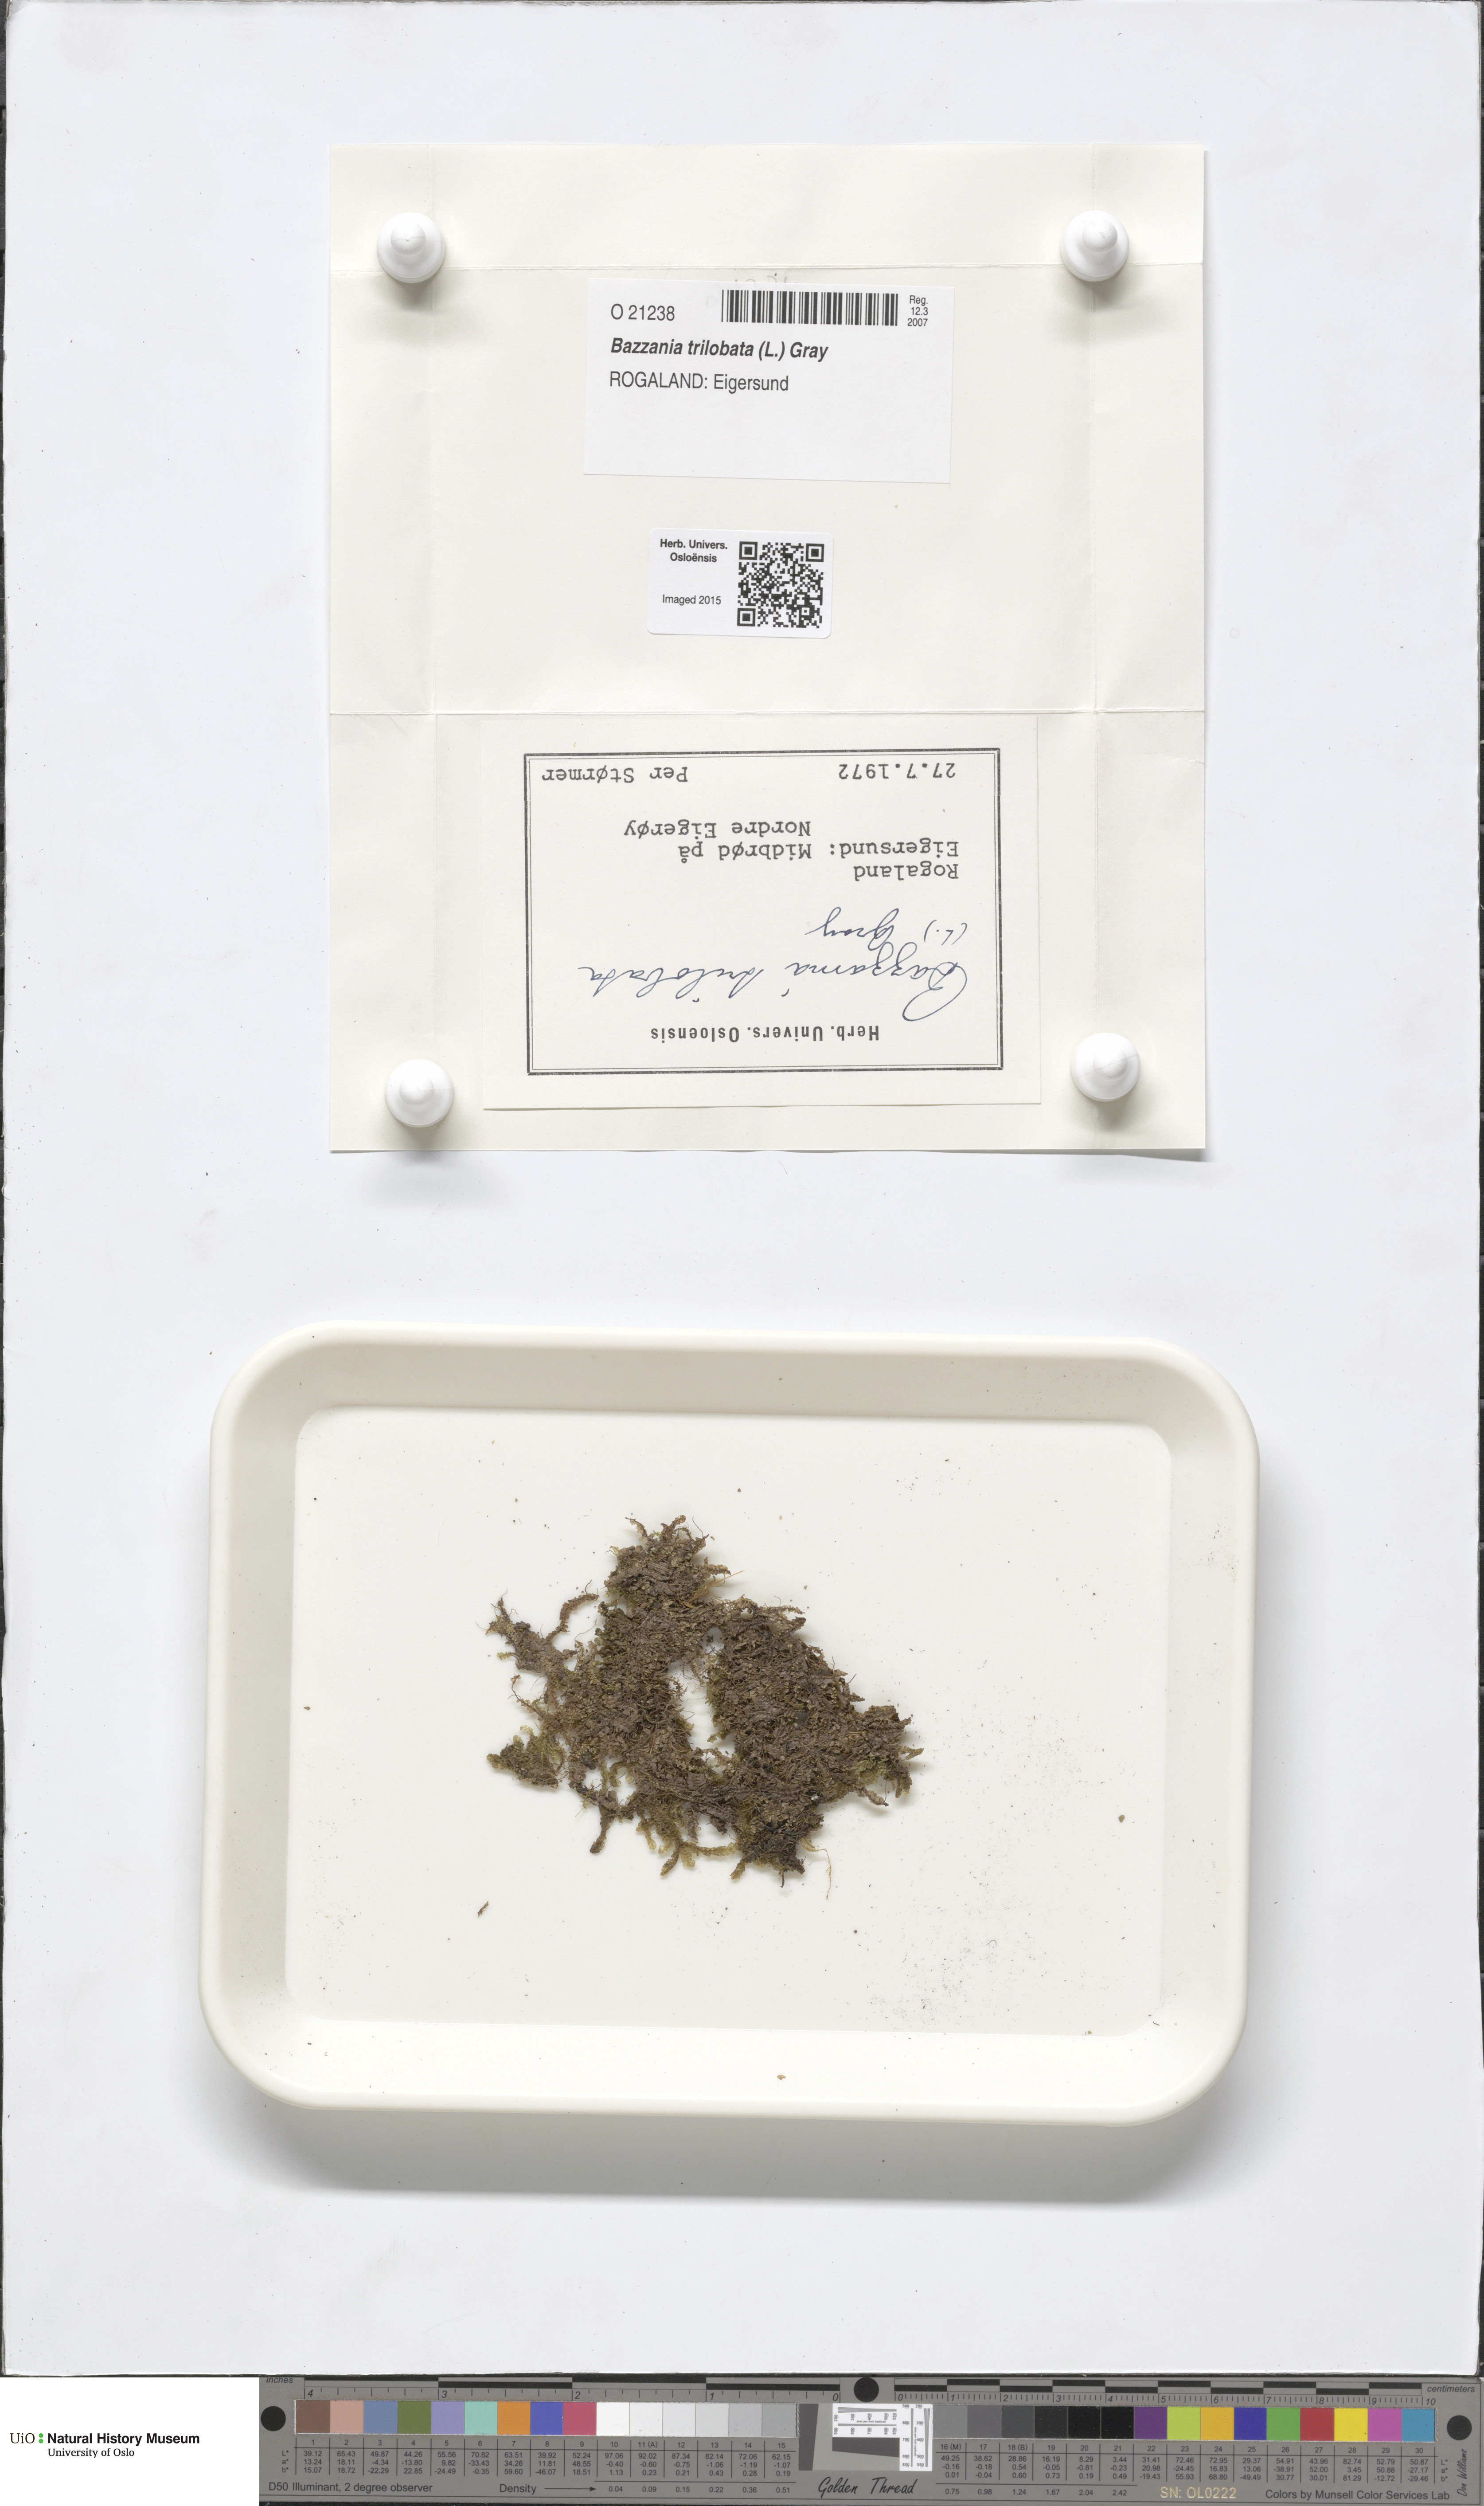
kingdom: Plantae
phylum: Marchantiophyta
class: Jungermanniopsida
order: Jungermanniales
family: Lepidoziaceae
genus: Bazzania
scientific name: Bazzania trilobata
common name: Three-lobed whipwort
